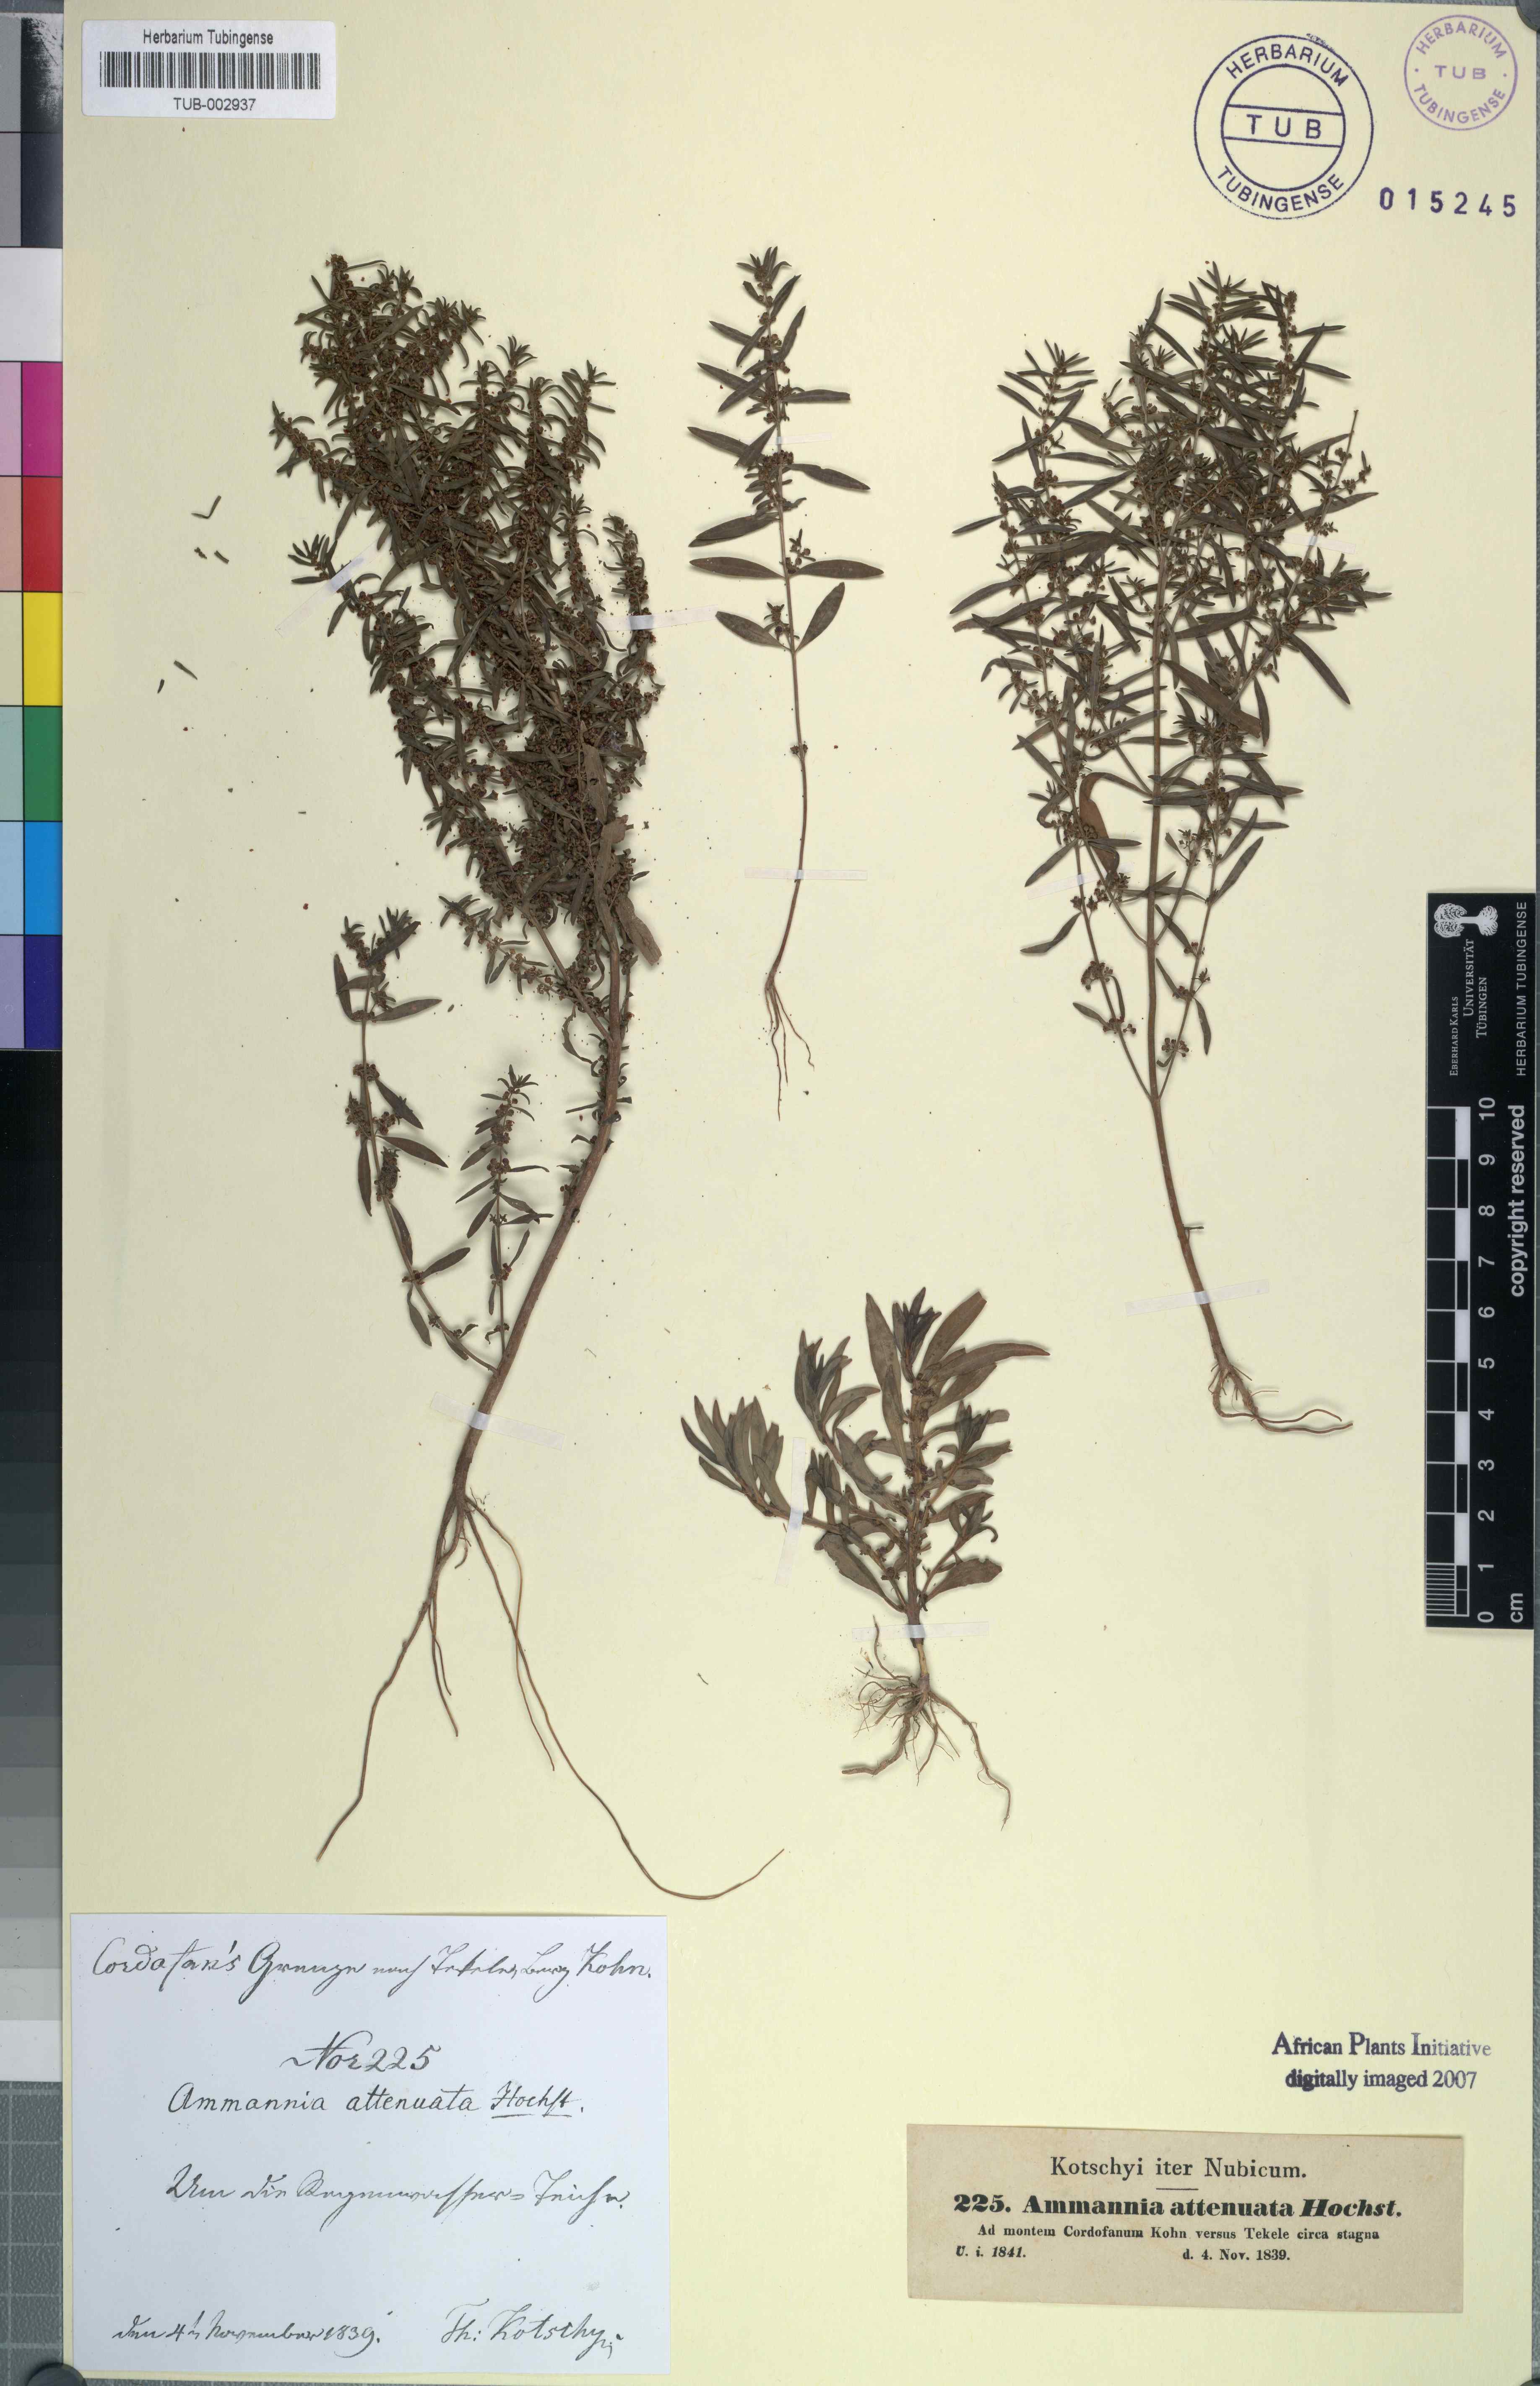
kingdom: Plantae
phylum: Tracheophyta
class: Magnoliopsida
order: Myrtales
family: Lythraceae
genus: Ammannia
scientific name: Ammannia baccifera
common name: Blistering ammania
